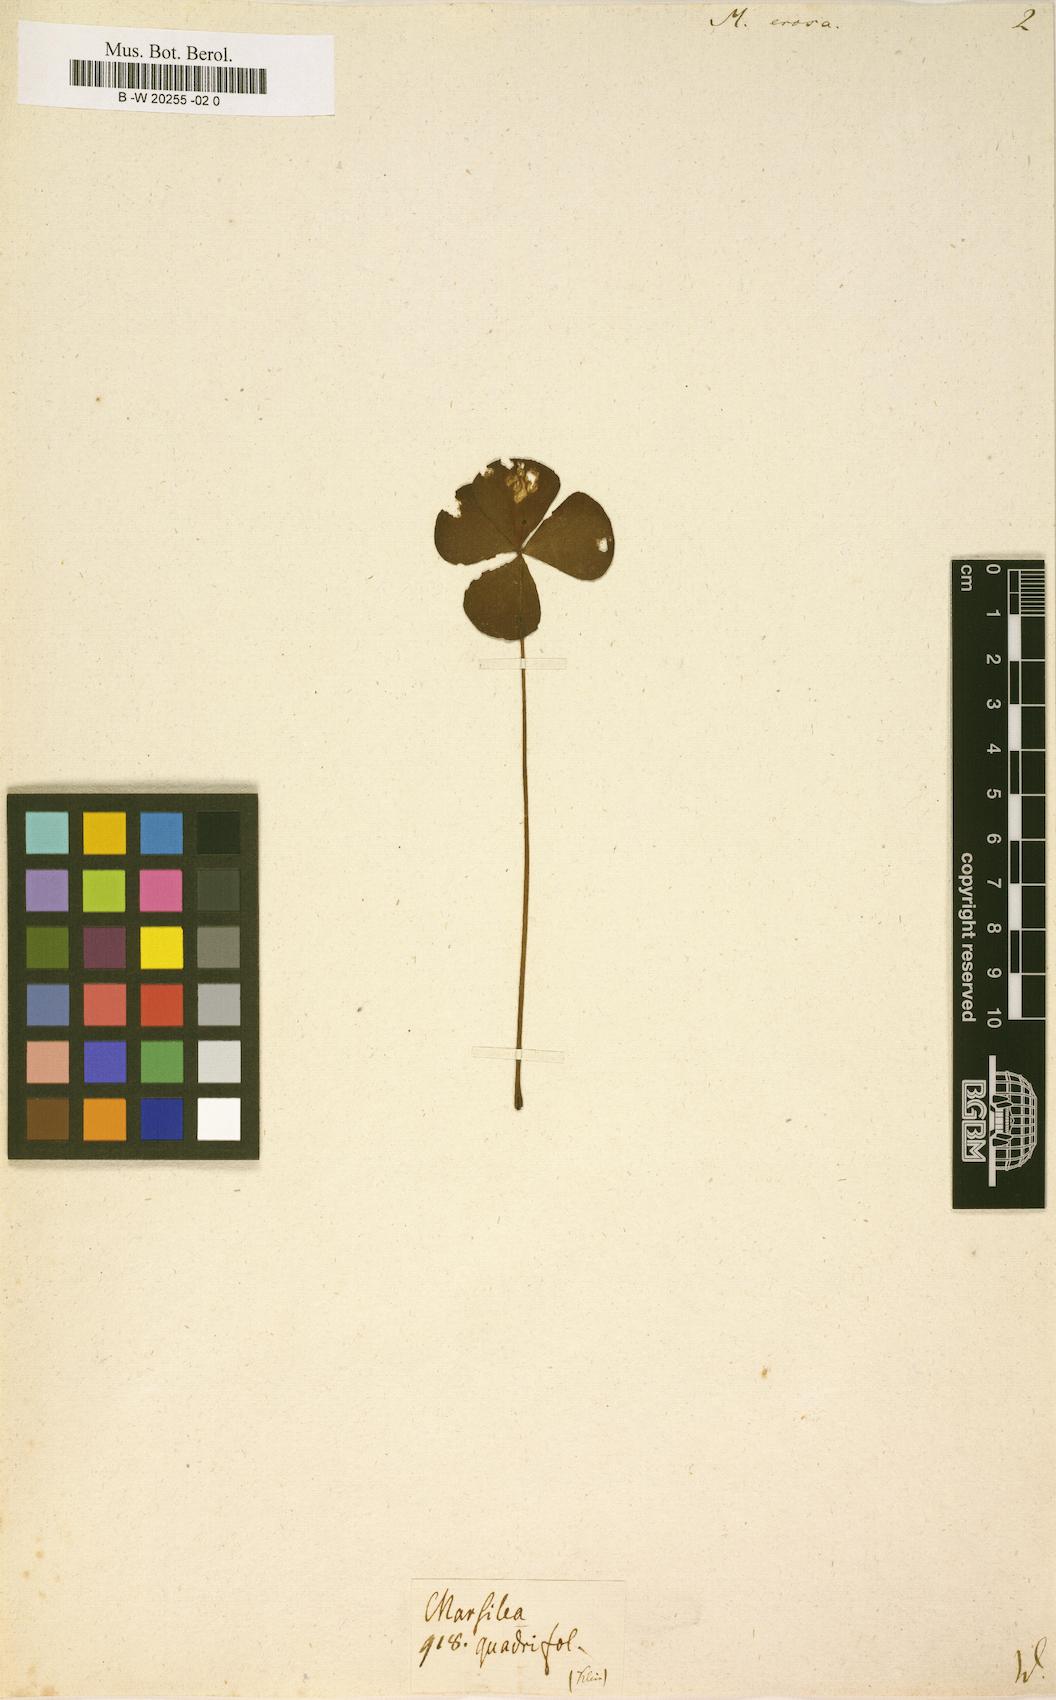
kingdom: Plantae
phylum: Tracheophyta
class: Polypodiopsida
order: Salviniales
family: Marsileaceae
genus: Marsilea
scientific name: Marsilea minuta
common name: Dwarf waterclover
